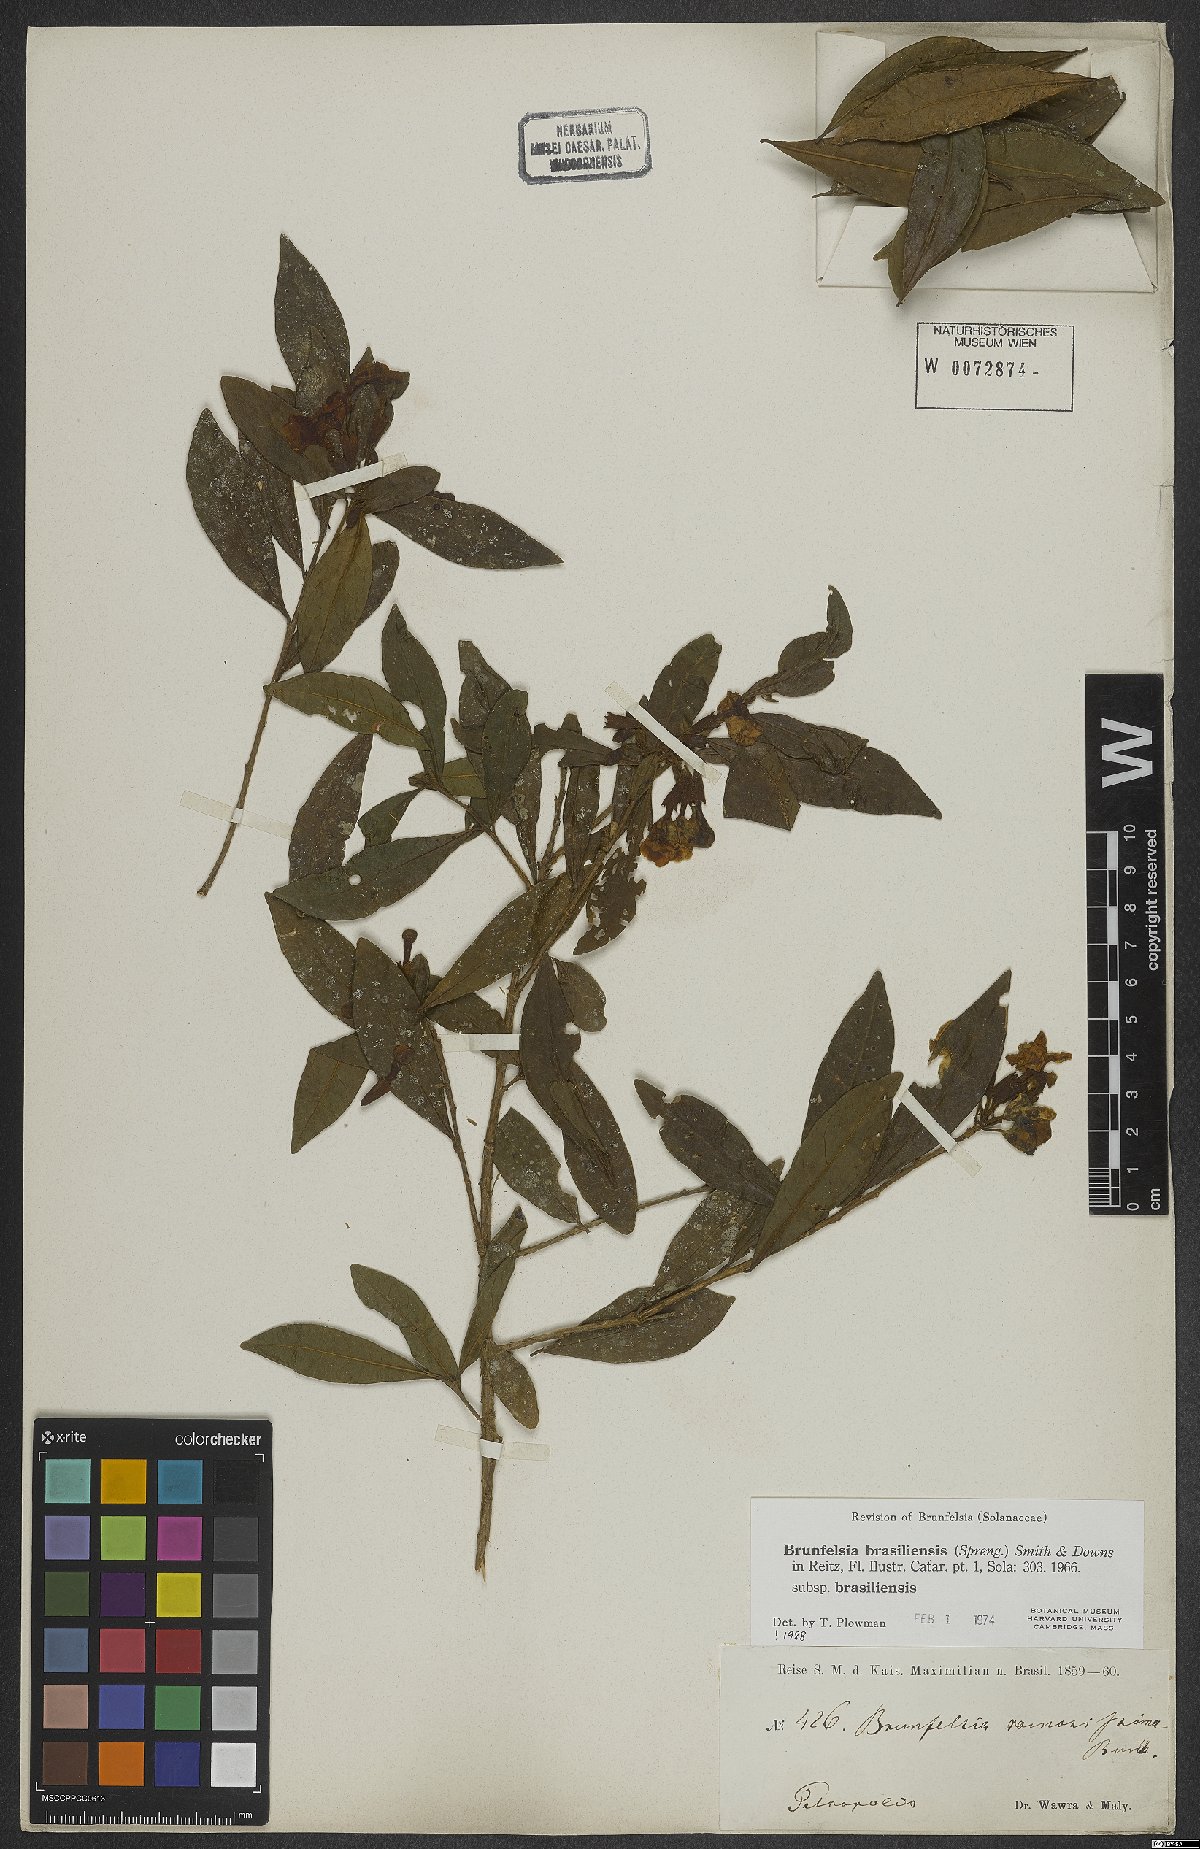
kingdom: Plantae
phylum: Tracheophyta
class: Magnoliopsida
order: Solanales
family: Solanaceae
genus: Brunfelsia
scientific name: Brunfelsia brasiliensis
